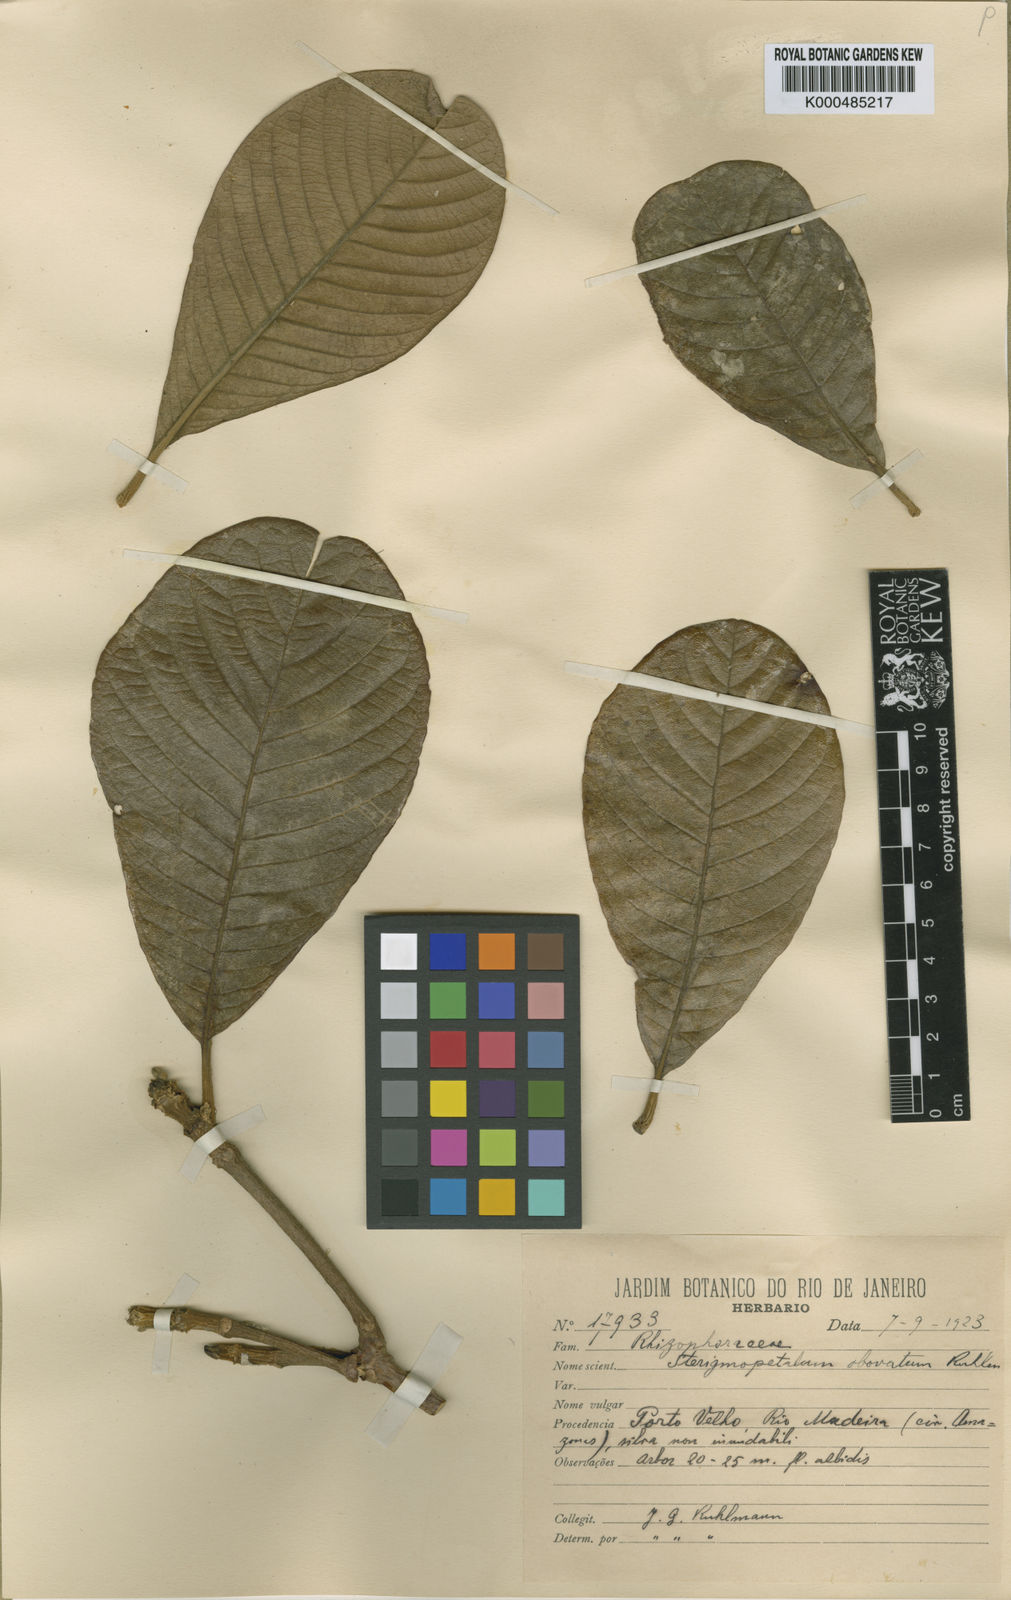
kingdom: Plantae
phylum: Tracheophyta
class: Magnoliopsida
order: Malpighiales
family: Rhizophoraceae
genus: Sterigmapetalum
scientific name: Sterigmapetalum obovatum
